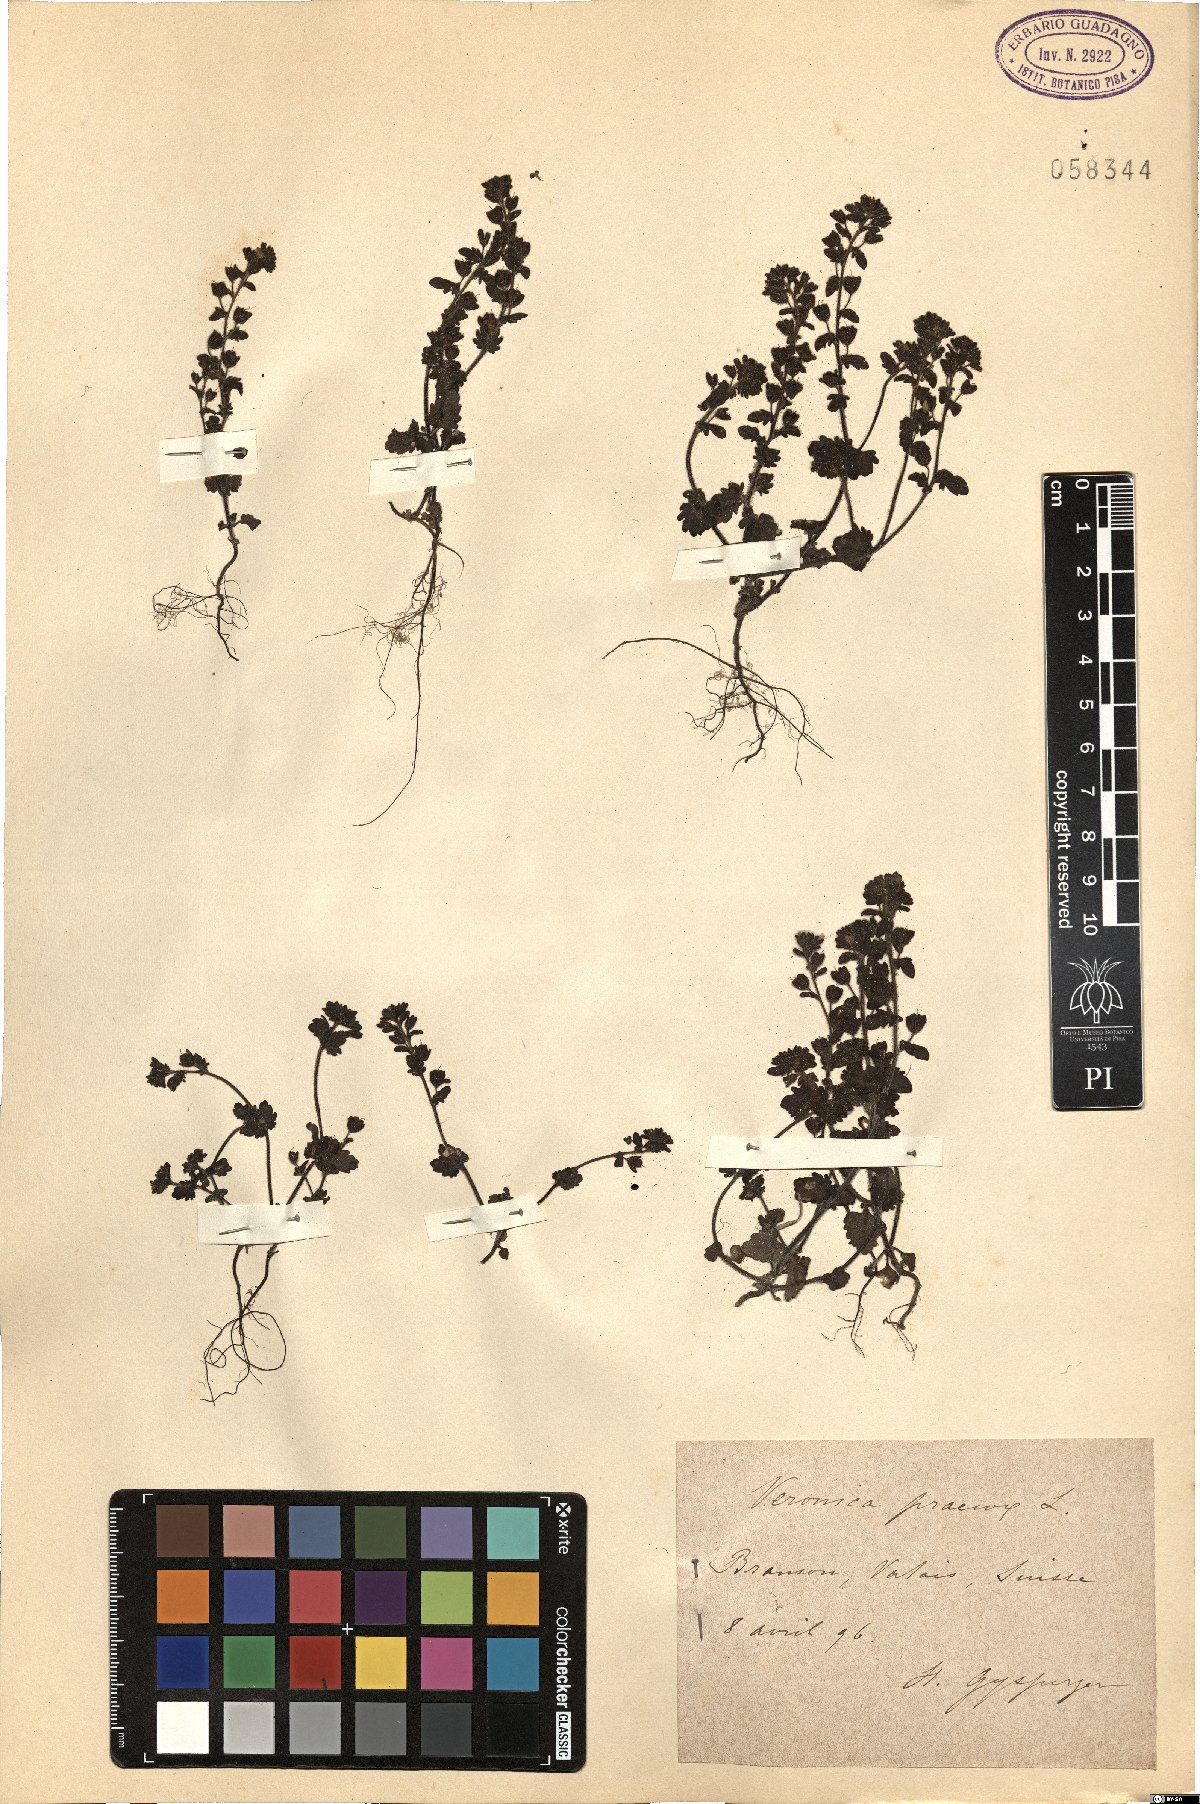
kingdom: Plantae
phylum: Tracheophyta
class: Magnoliopsida
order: Lamiales
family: Plantaginaceae
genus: Veronica
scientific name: Veronica praecox
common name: Breckland speedwell
